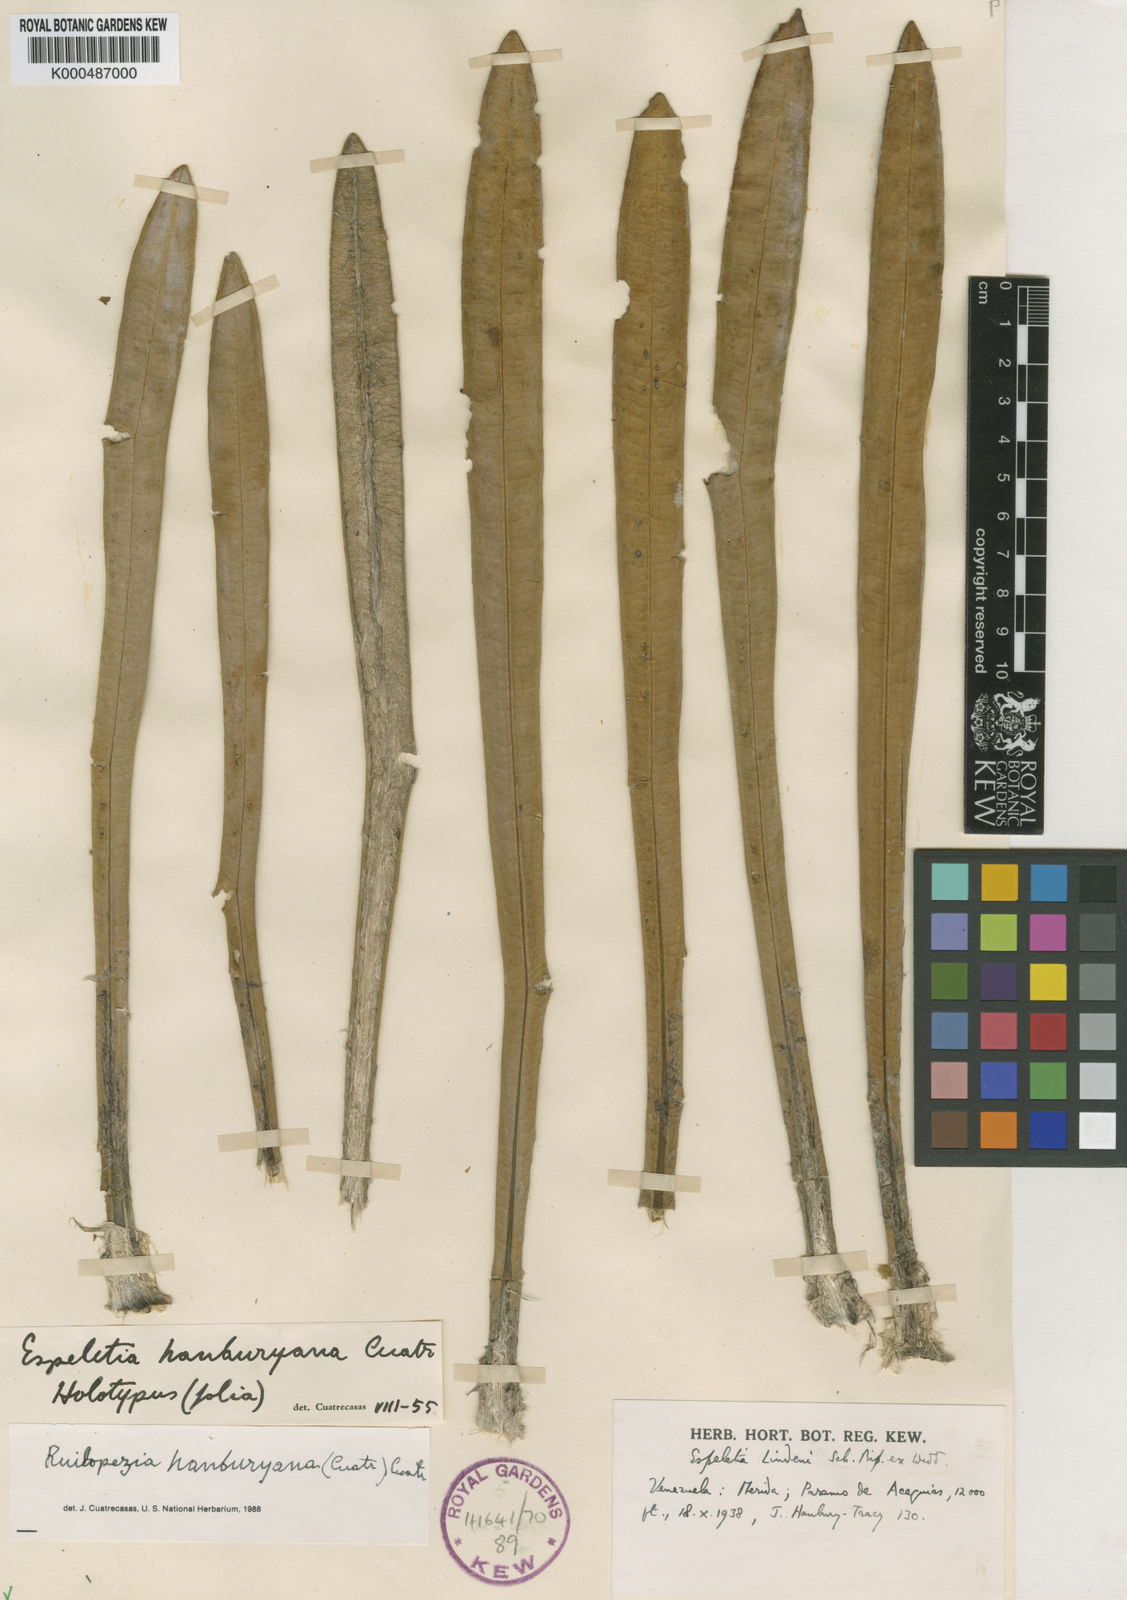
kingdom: Plantae
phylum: Tracheophyta
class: Magnoliopsida
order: Asterales
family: Asteraceae
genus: Espeletia
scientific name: Espeletia
